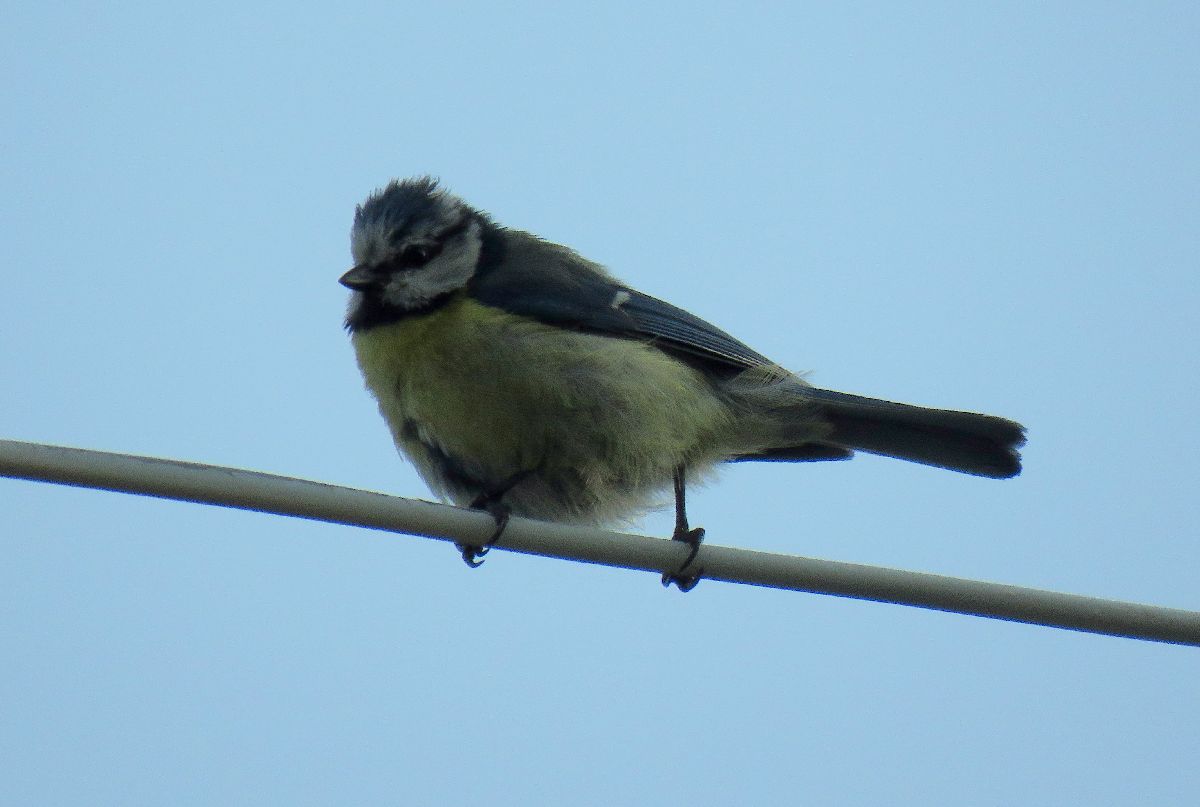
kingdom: Animalia
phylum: Chordata
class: Aves
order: Passeriformes
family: Paridae
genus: Cyanistes
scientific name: Cyanistes caeruleus
